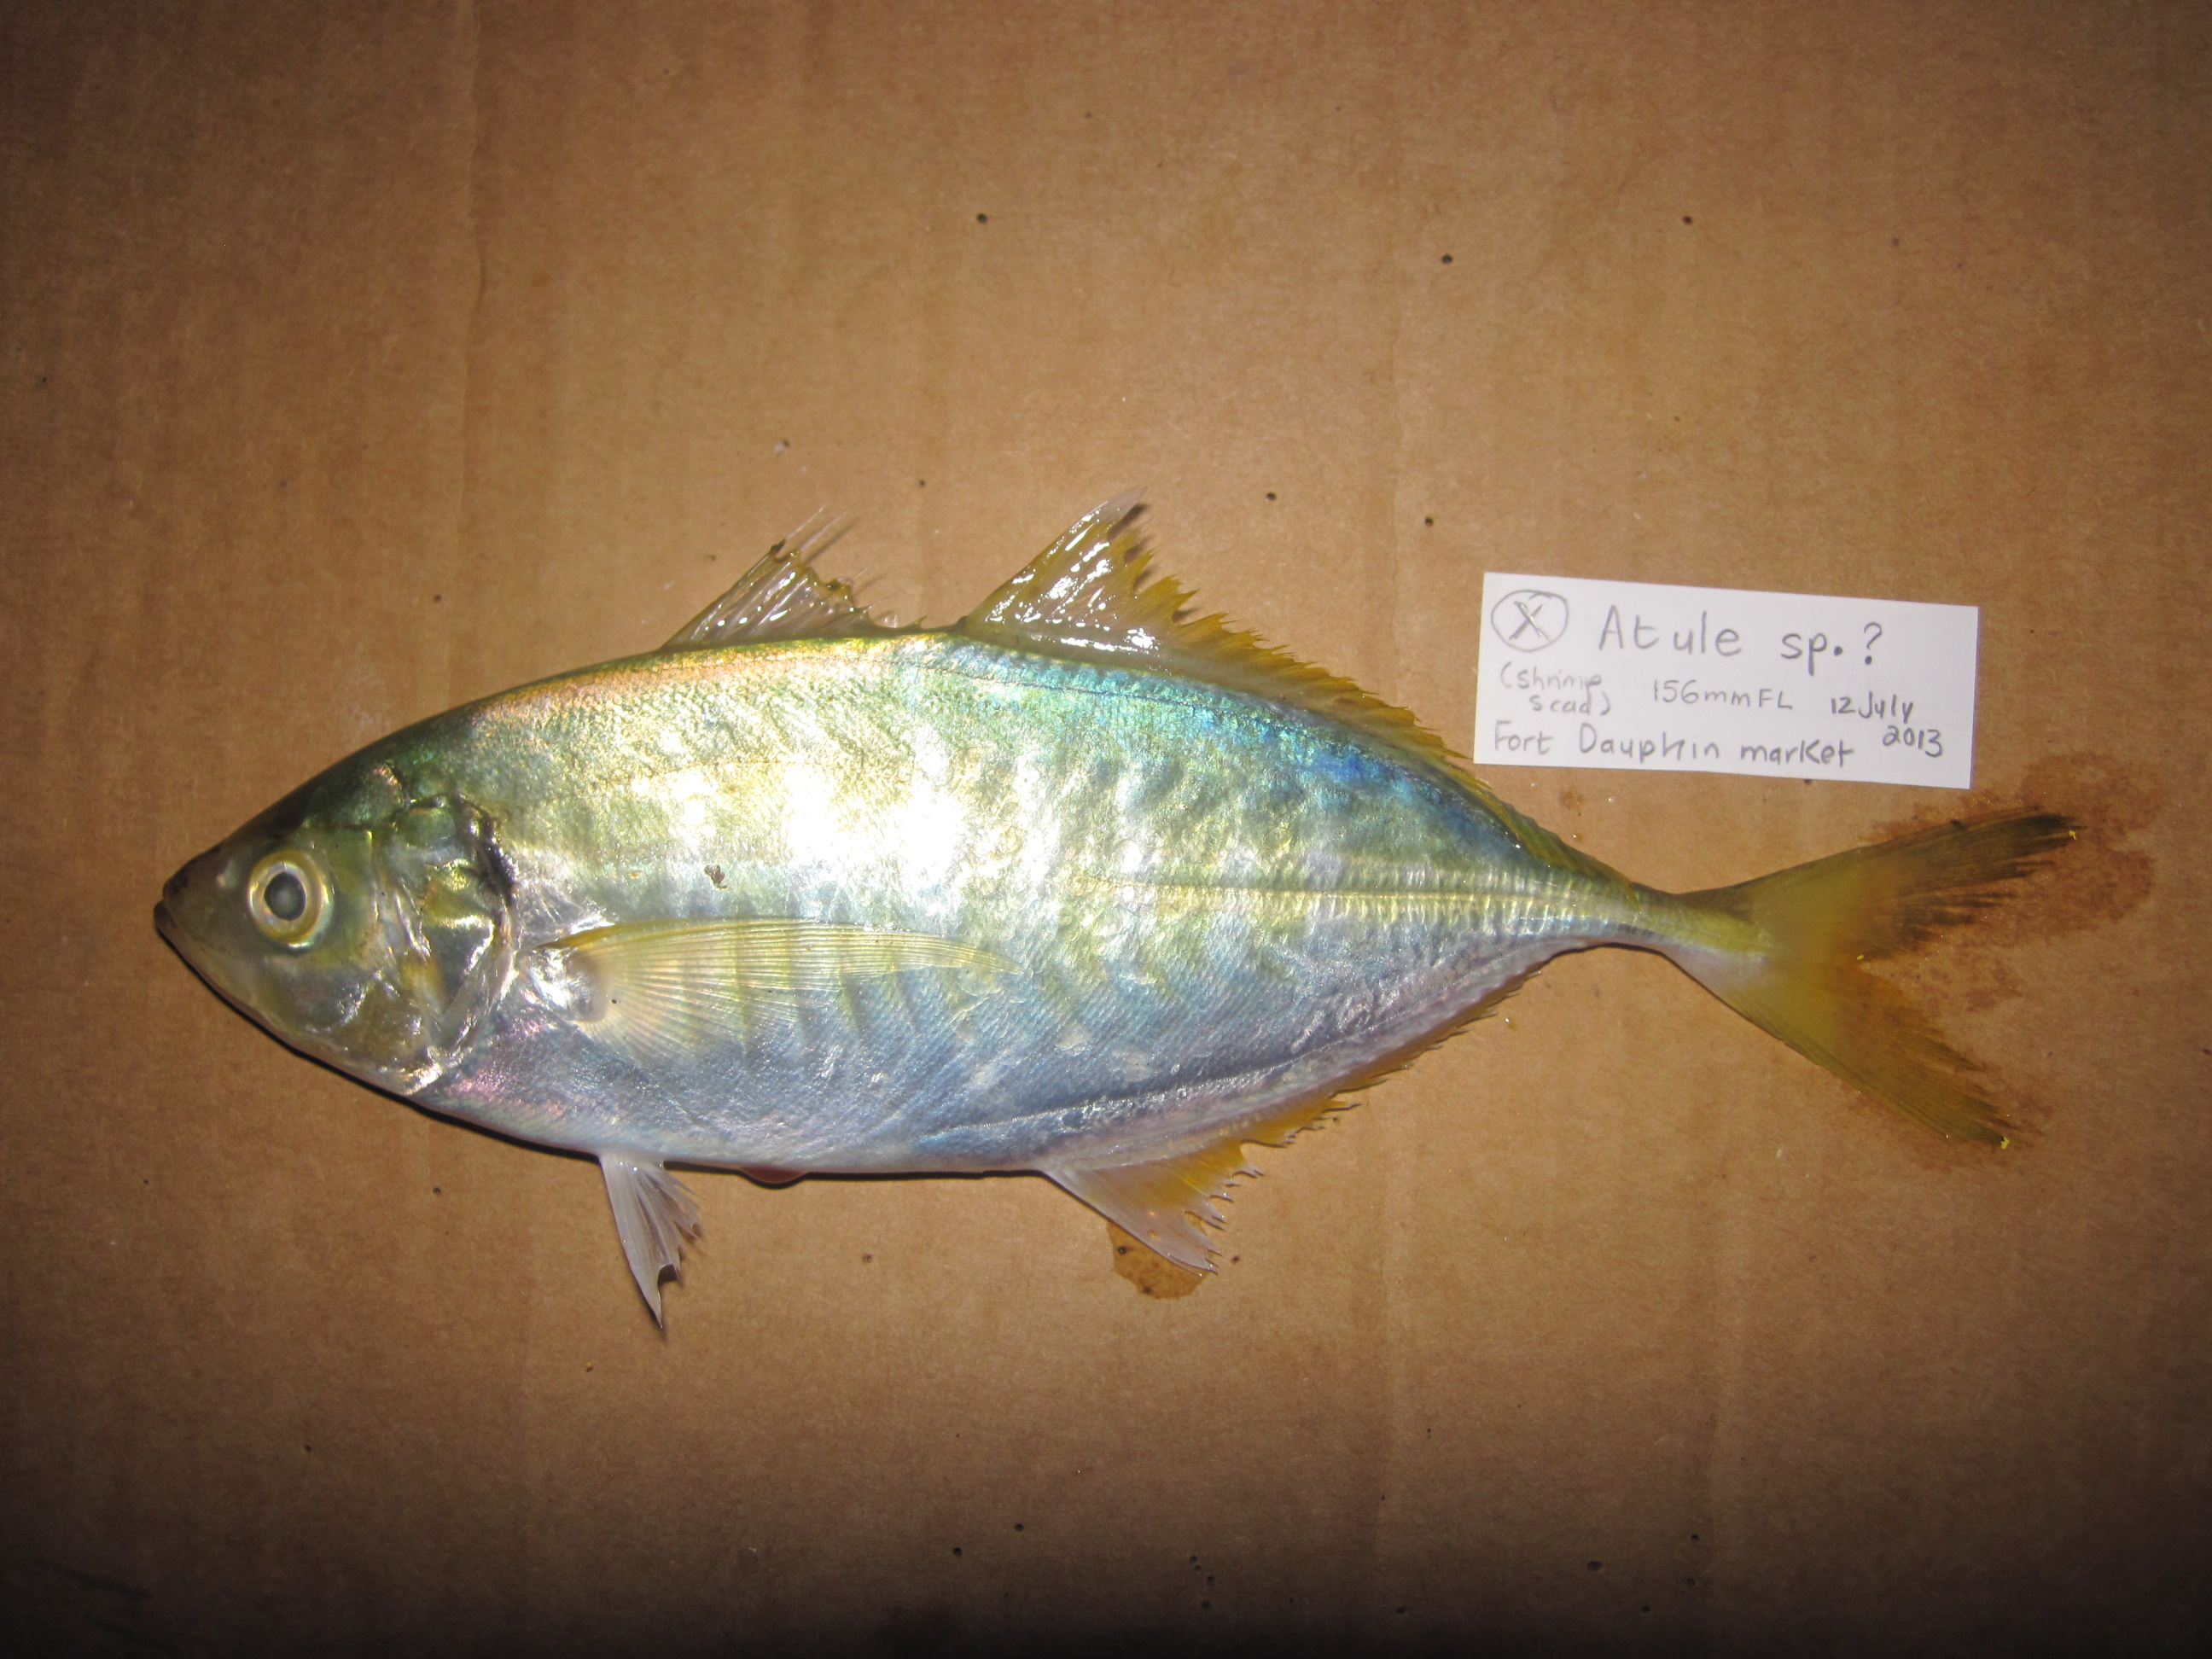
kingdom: Animalia
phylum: Chordata
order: Perciformes
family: Carangidae
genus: Atule
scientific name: Atule mate
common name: Yellowtail scad
